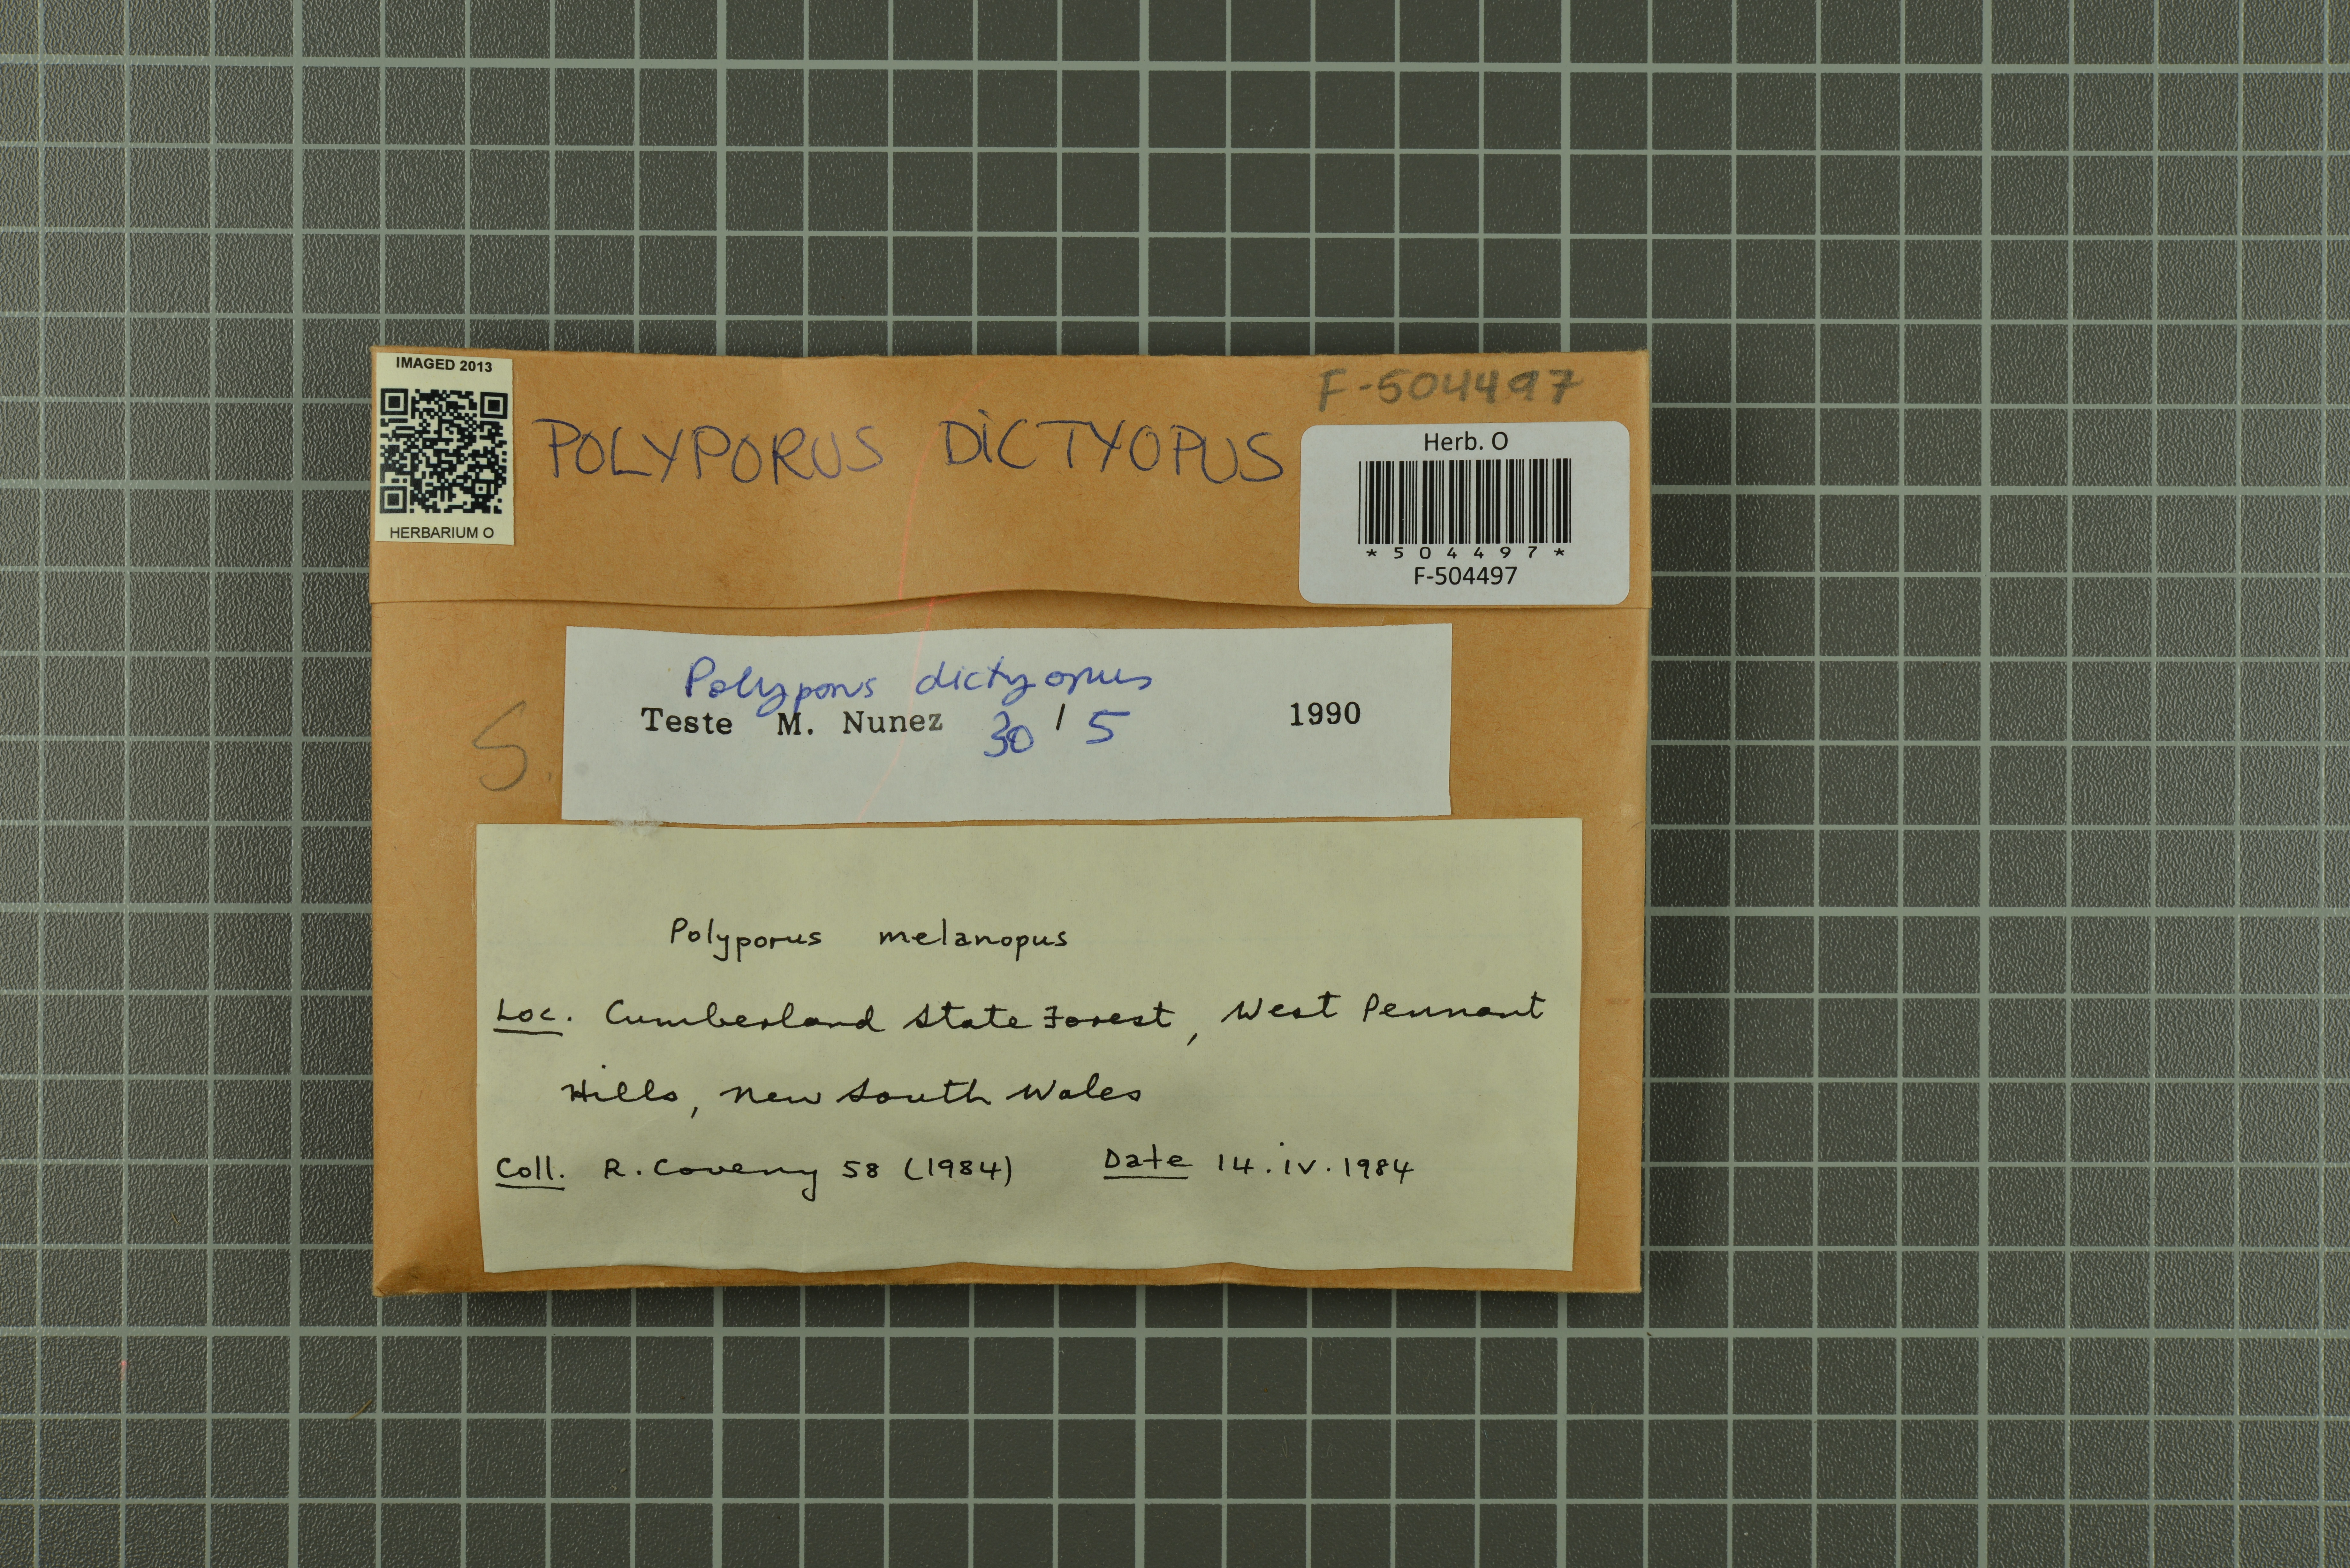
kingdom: Fungi
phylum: Basidiomycota
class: Agaricomycetes
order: Polyporales
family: Polyporaceae
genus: Picipes
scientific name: Picipes dictyopus
